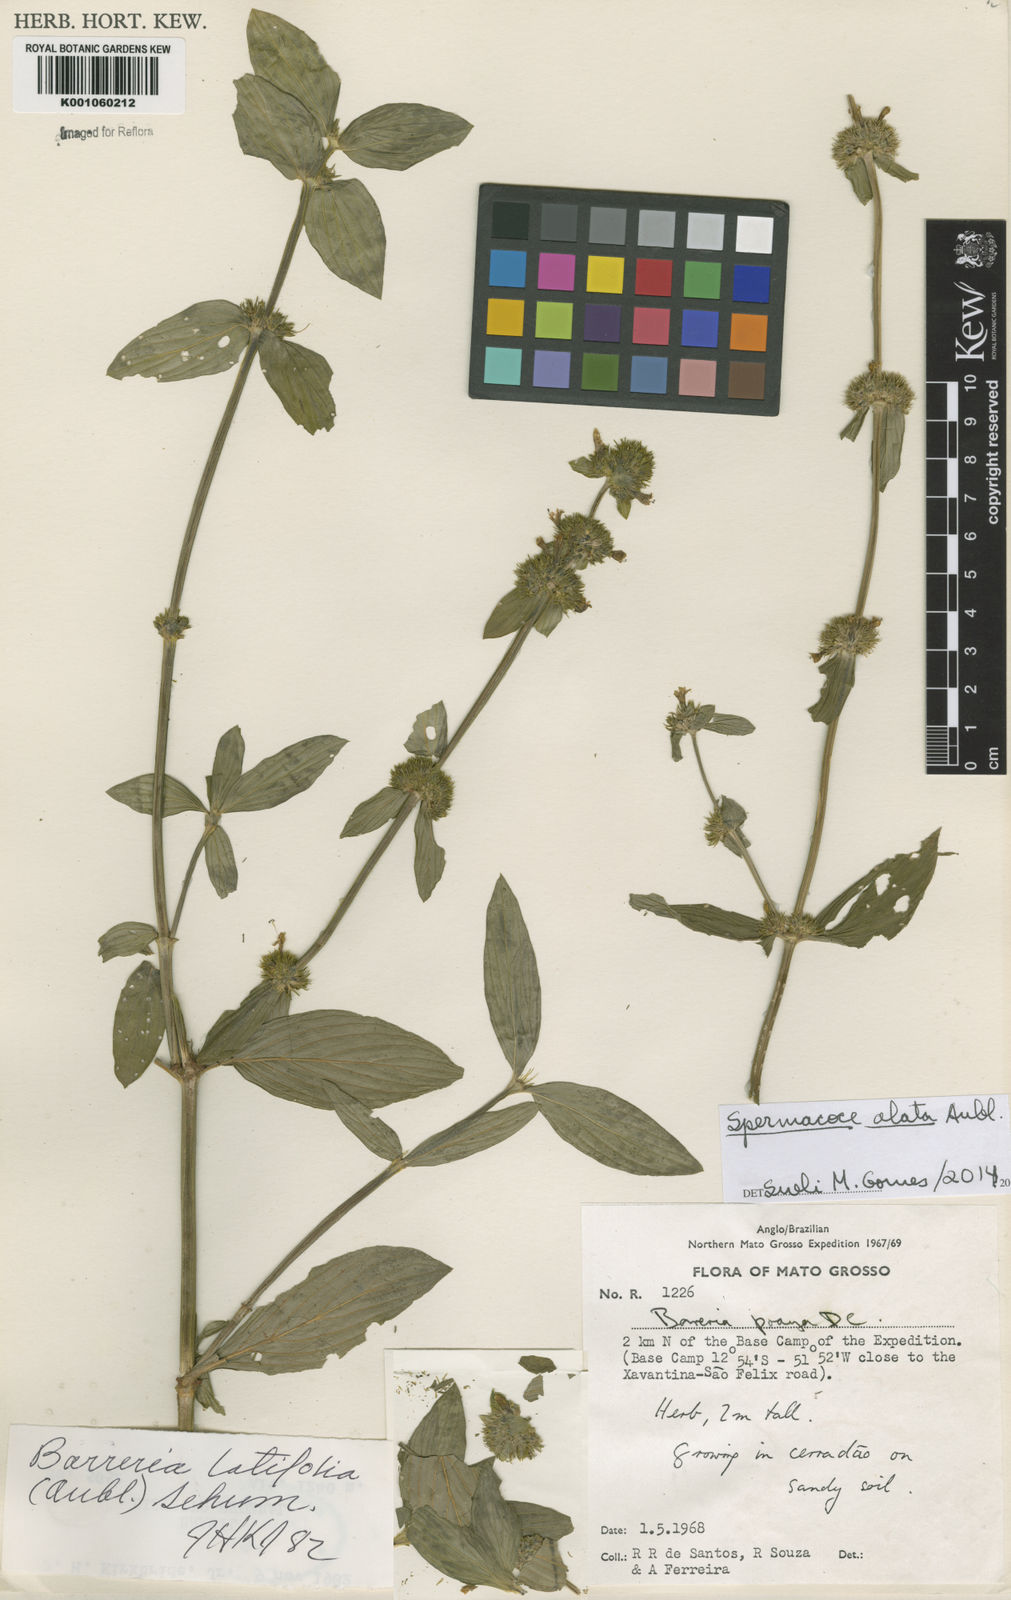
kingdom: Plantae
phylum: Tracheophyta
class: Magnoliopsida
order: Gentianales
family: Rubiaceae
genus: Spermacoce
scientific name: Spermacoce
